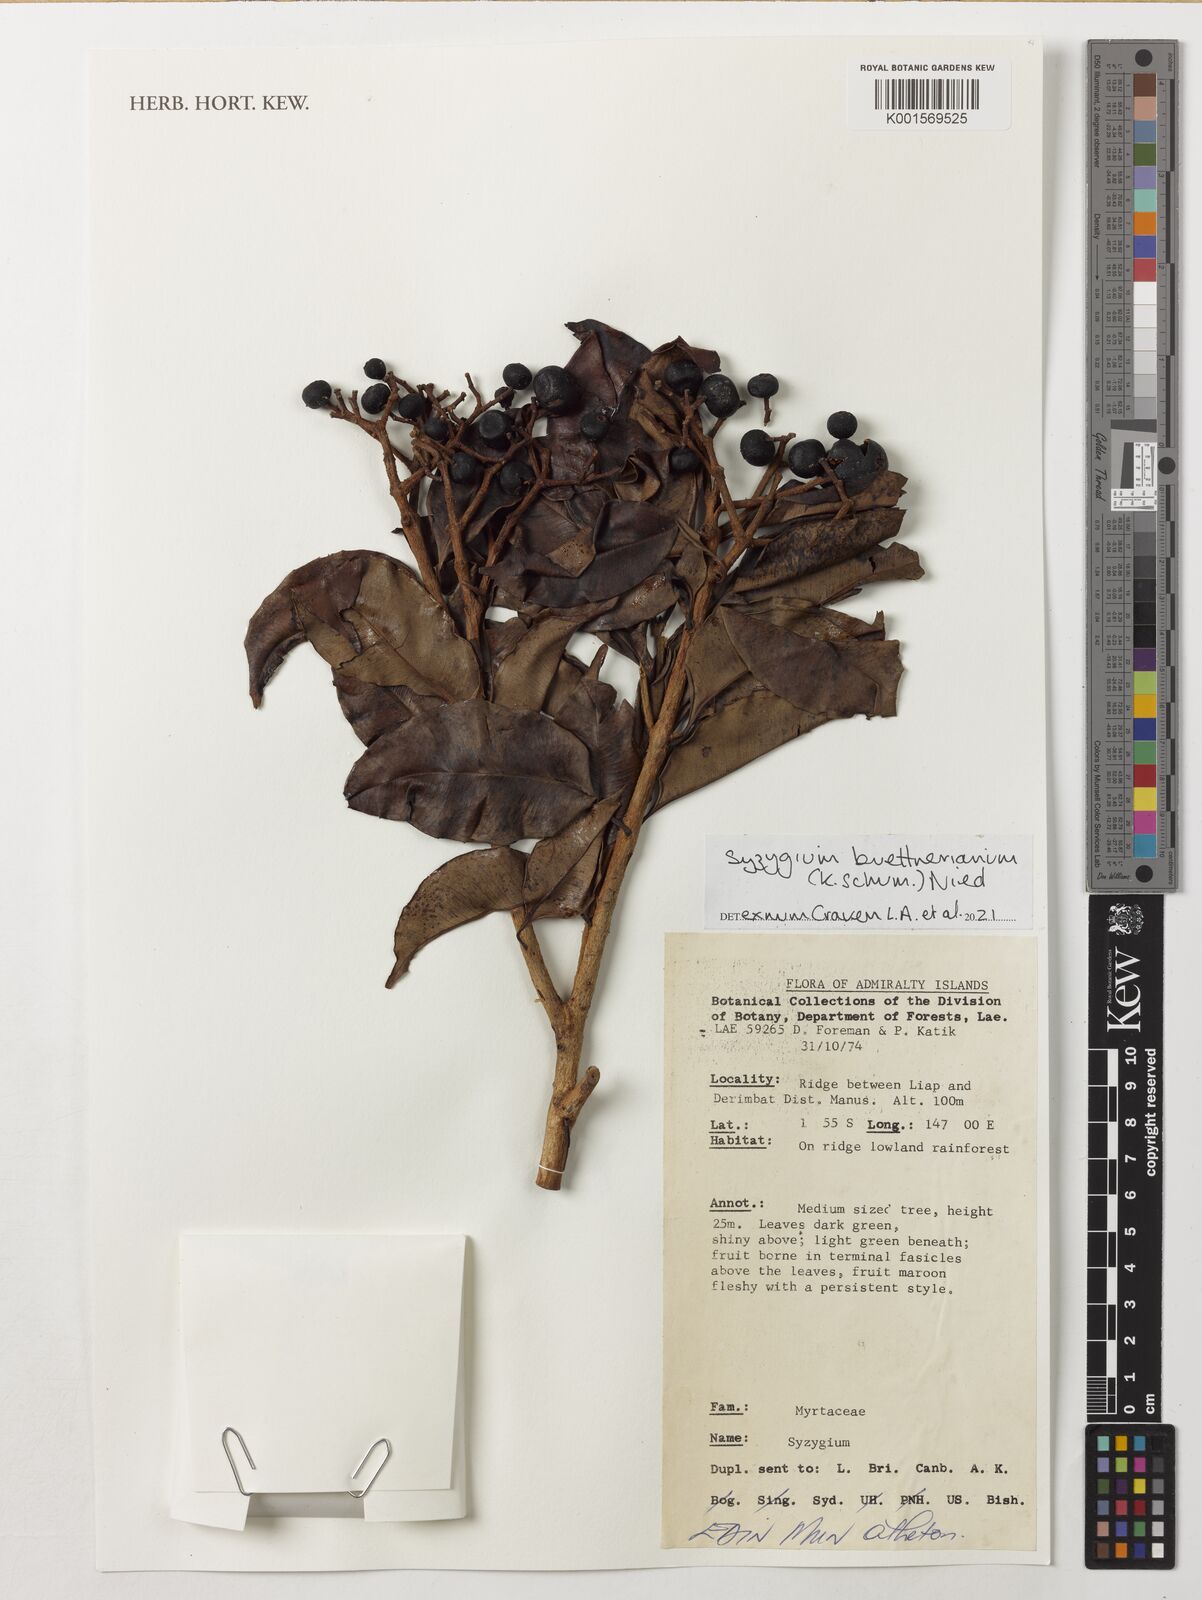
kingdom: Plantae
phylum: Tracheophyta
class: Magnoliopsida
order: Myrtales
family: Myrtaceae
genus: Syzygium
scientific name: Syzygium
